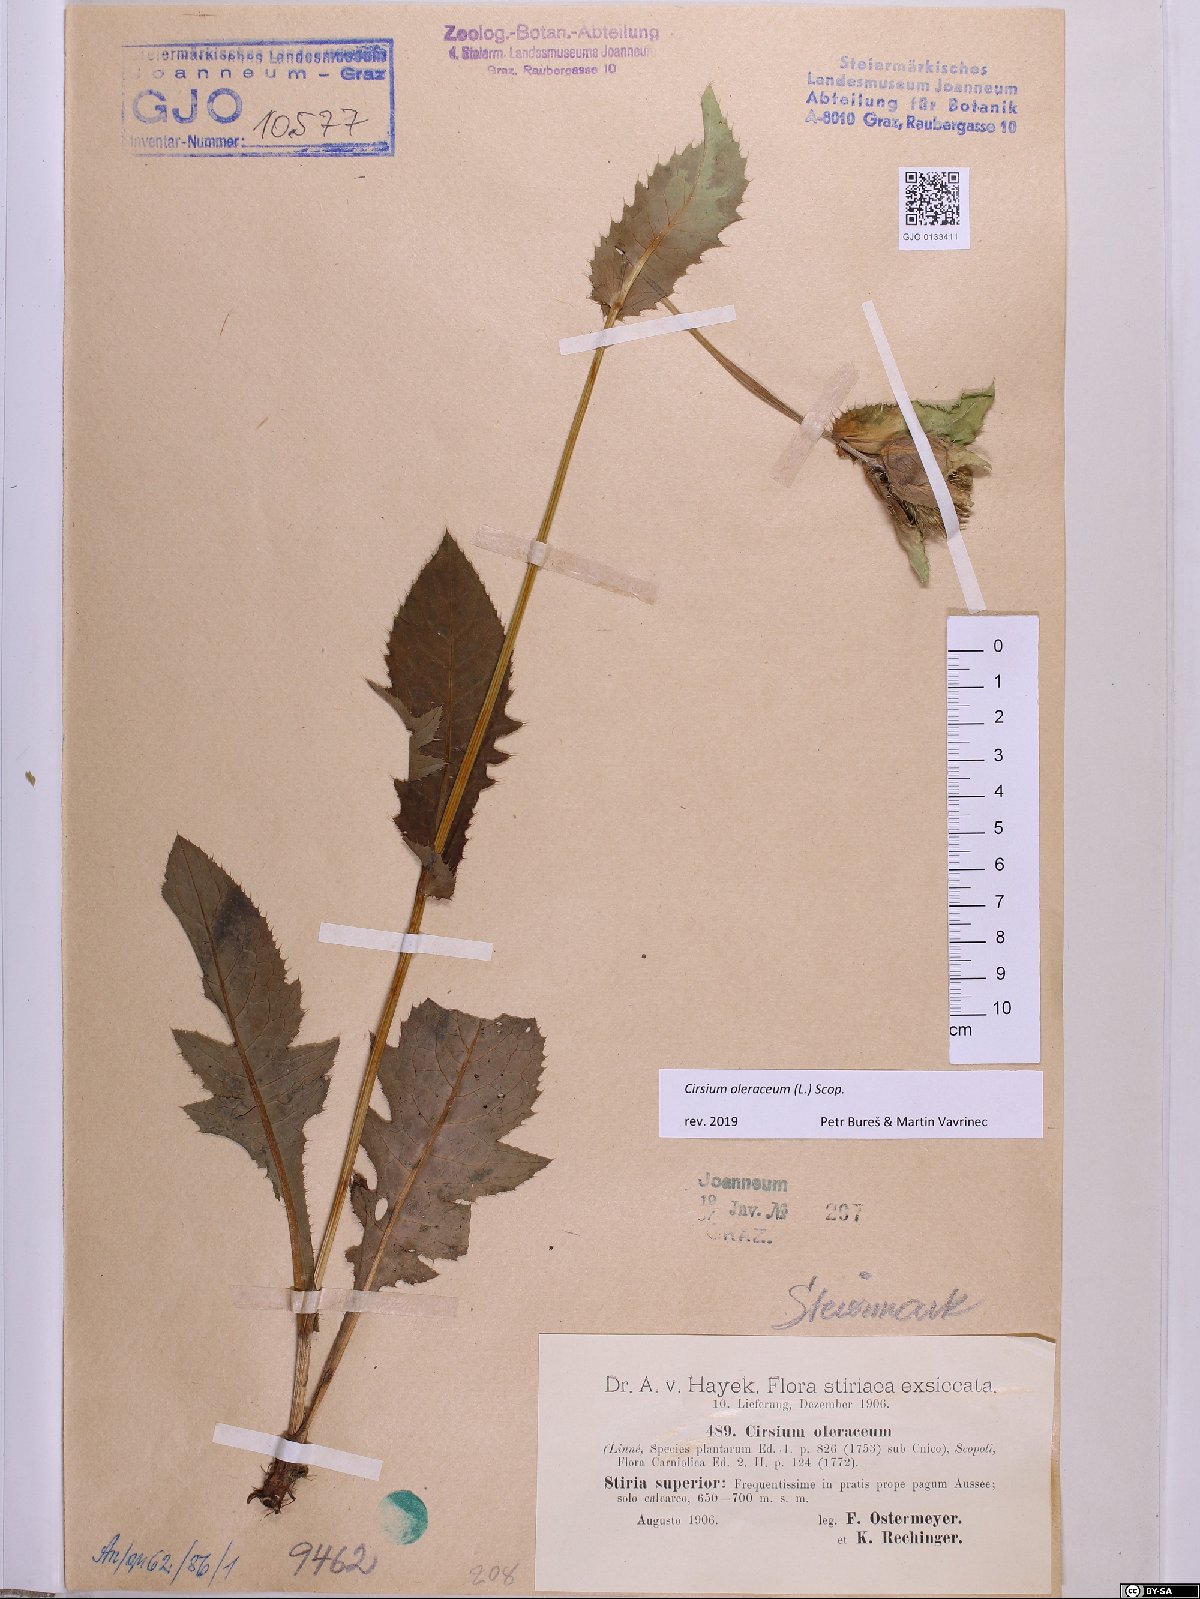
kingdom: Plantae
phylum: Tracheophyta
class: Magnoliopsida
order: Asterales
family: Asteraceae
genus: Cirsium
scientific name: Cirsium oleraceum
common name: Cabbage thistle
